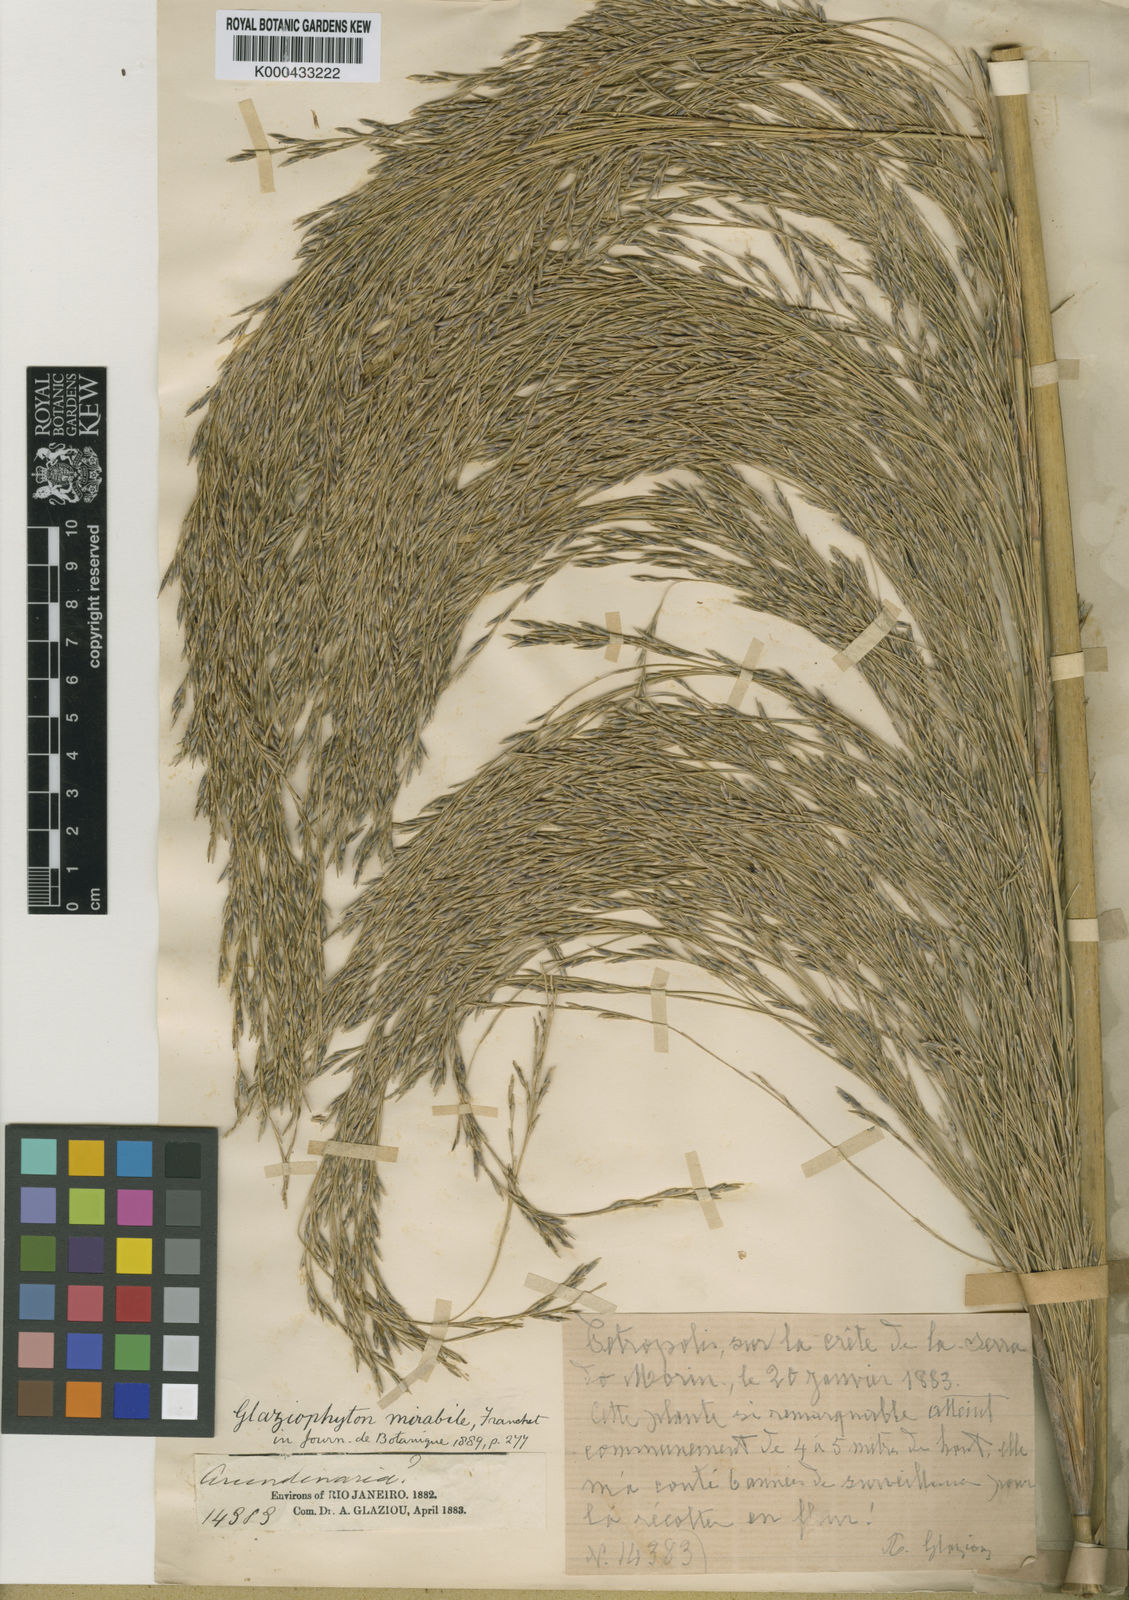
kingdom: Plantae
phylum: Tracheophyta
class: Liliopsida
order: Poales
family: Poaceae
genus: Glaziophyton
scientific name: Glaziophyton mirabile
